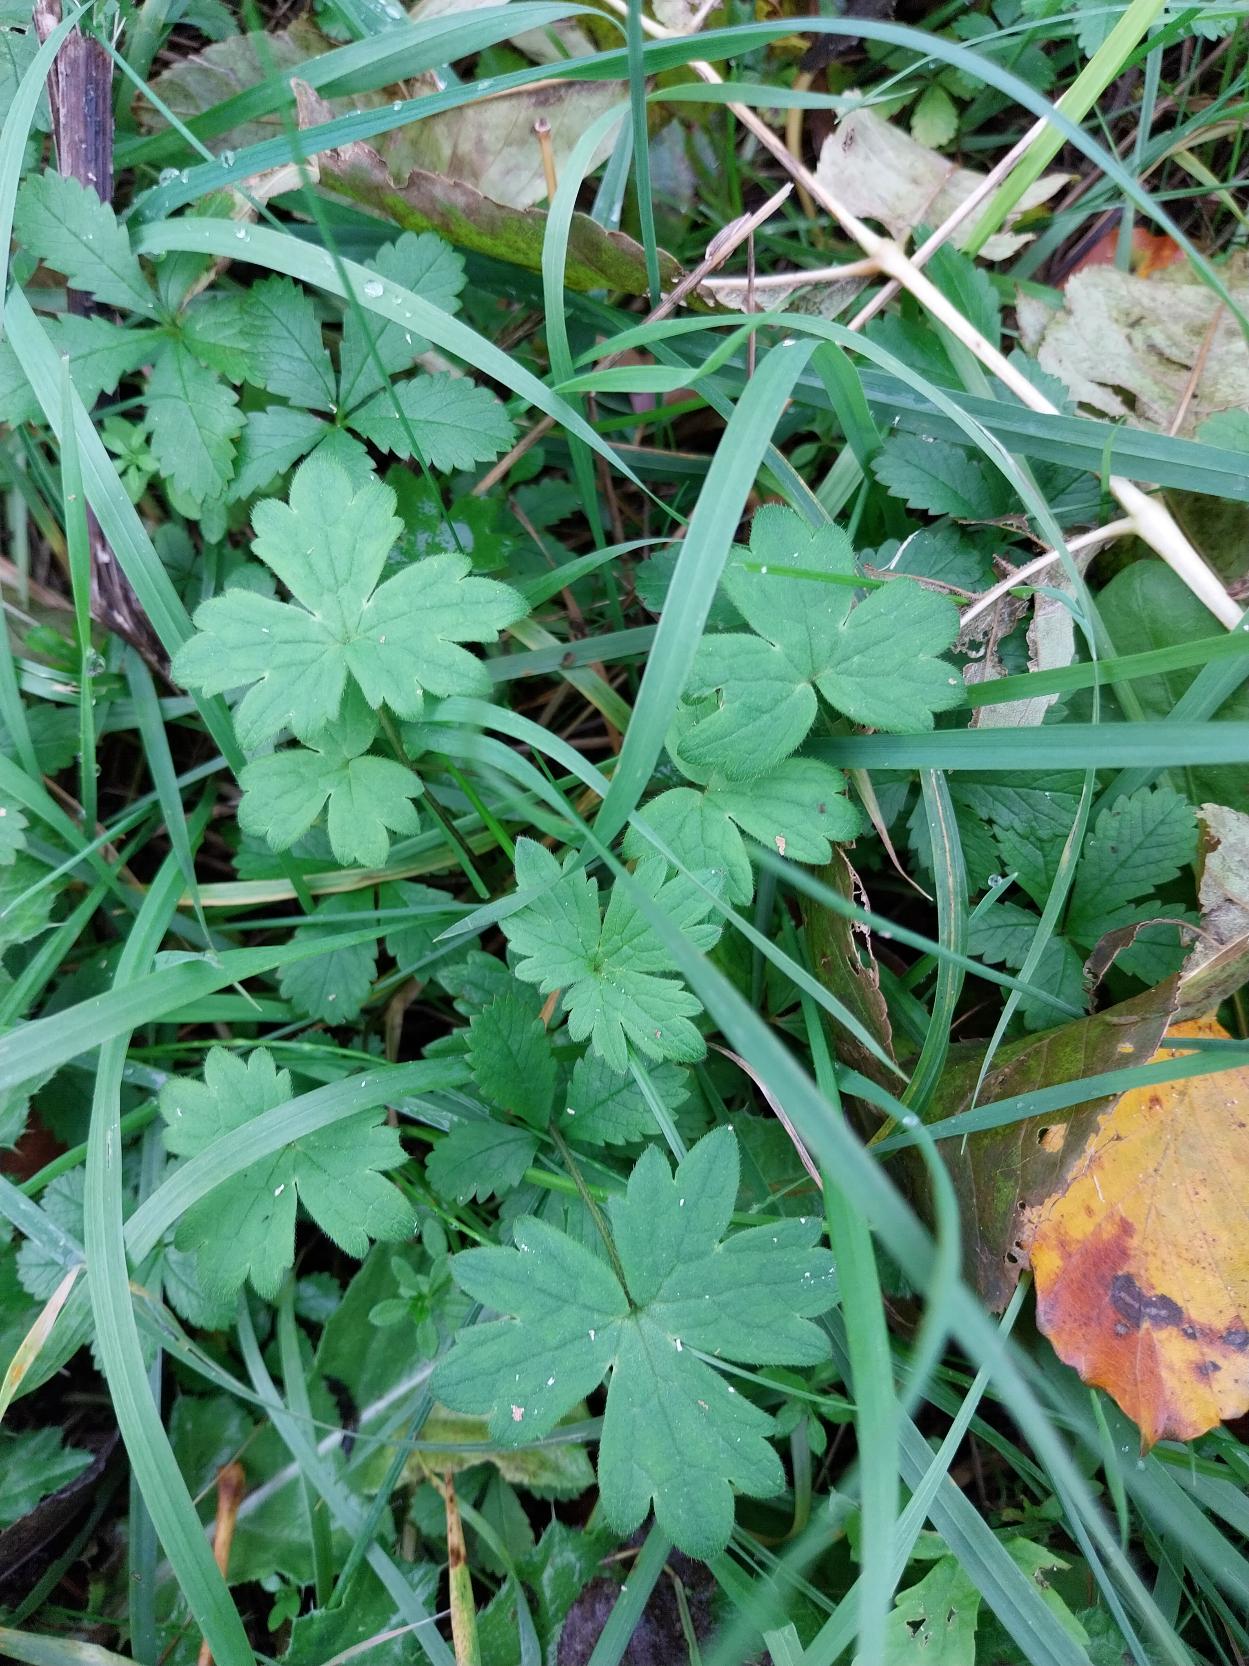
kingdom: Plantae
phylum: Tracheophyta
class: Magnoliopsida
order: Ranunculales
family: Ranunculaceae
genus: Ranunculus
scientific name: Ranunculus acris
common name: Bidende ranunkel
